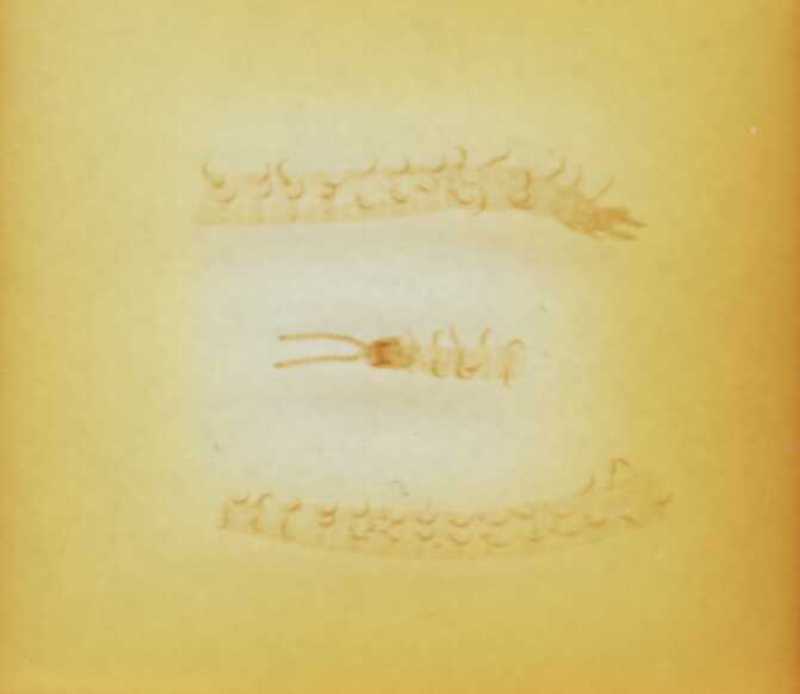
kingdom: Animalia
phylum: Arthropoda
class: Chilopoda
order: Geophilomorpha
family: Linotaeniidae
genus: Strigamia
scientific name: Strigamia pusilla
